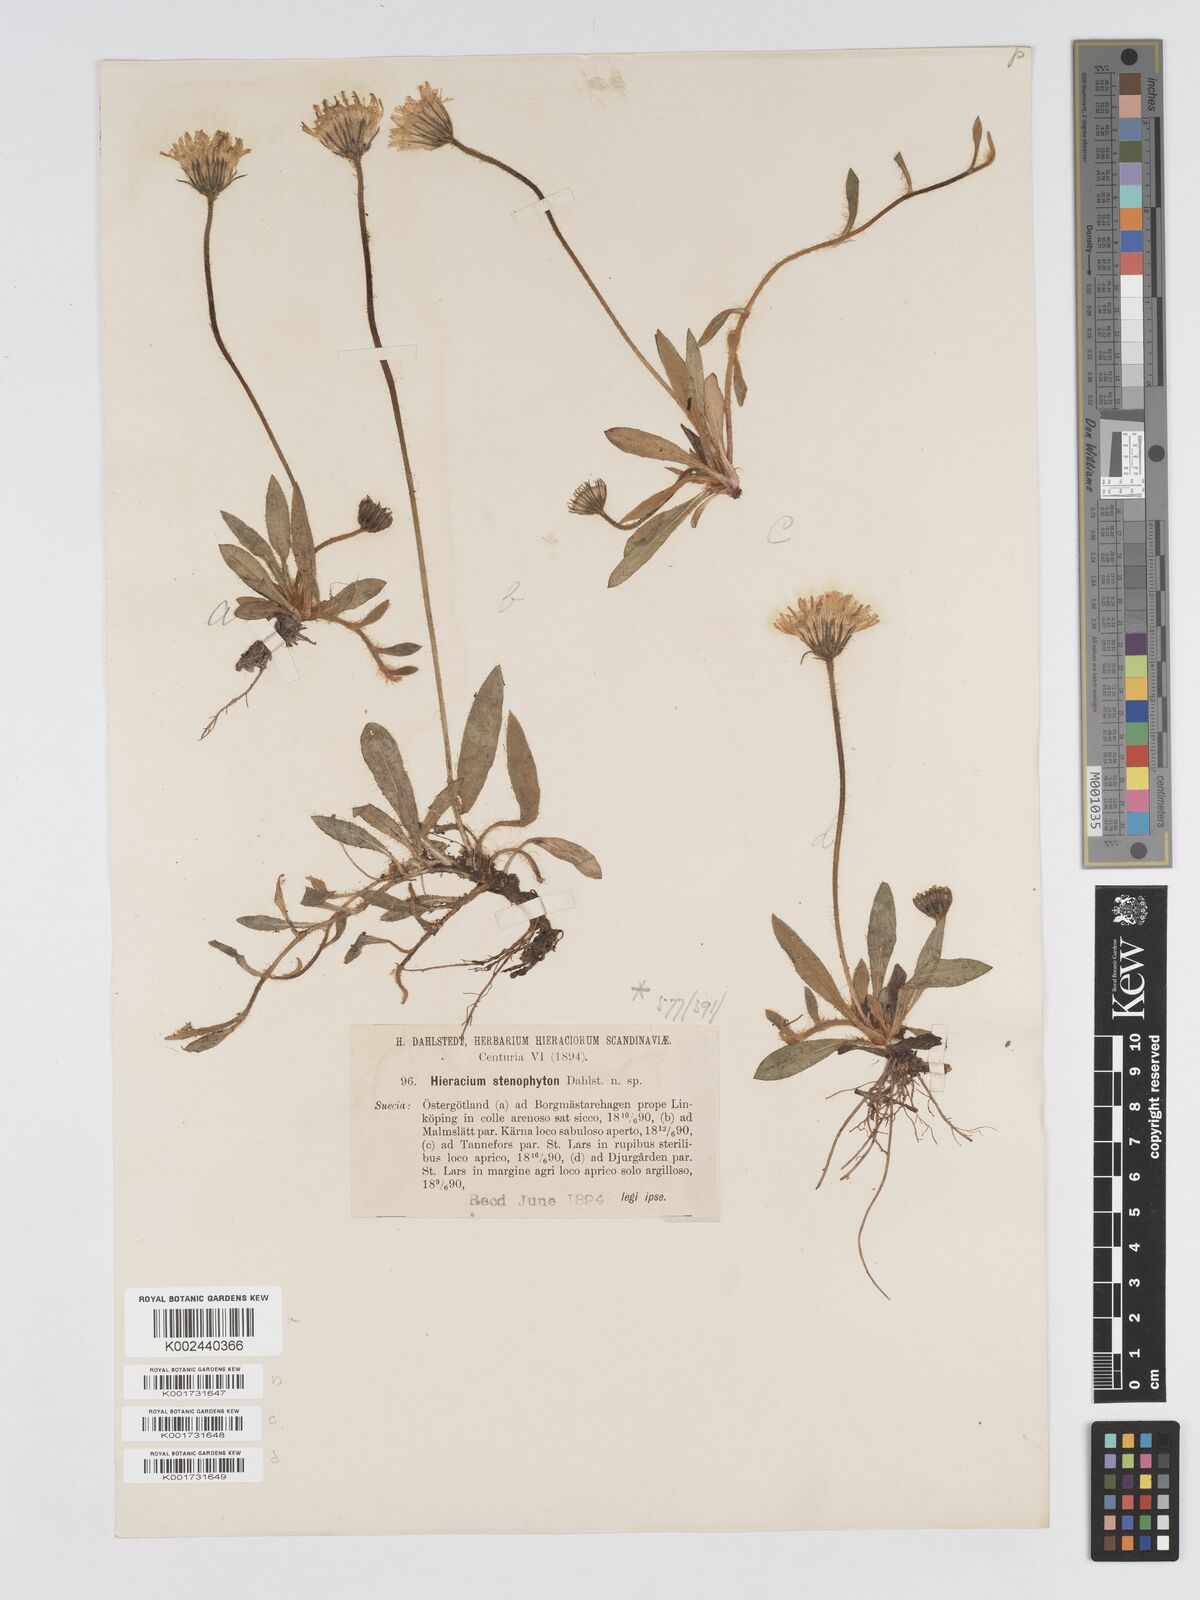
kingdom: Plantae
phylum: Tracheophyta
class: Magnoliopsida
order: Asterales
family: Asteraceae
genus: Pilosella
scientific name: Pilosella officinarum
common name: Mouse-ear hawkweed
